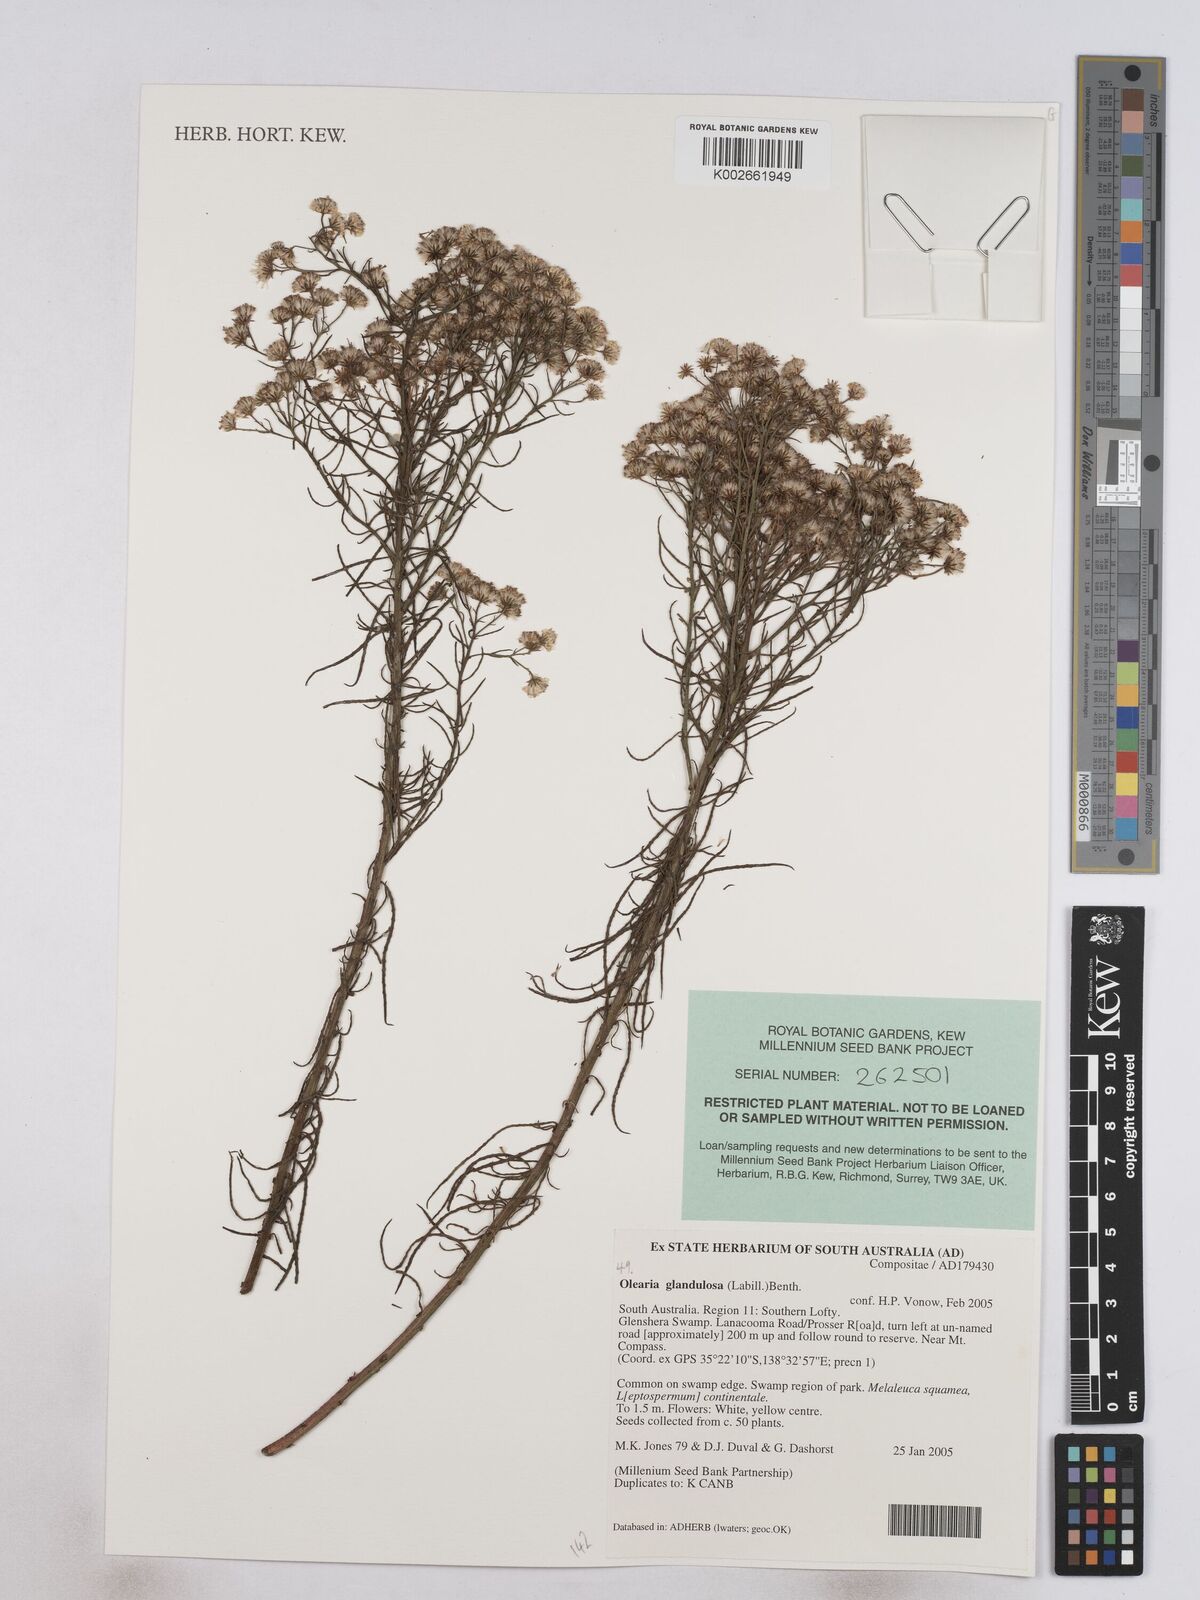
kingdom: Plantae
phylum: Tracheophyta
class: Magnoliopsida
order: Asterales
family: Asteraceae
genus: Spongotrichum
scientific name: Spongotrichum glandulosum
